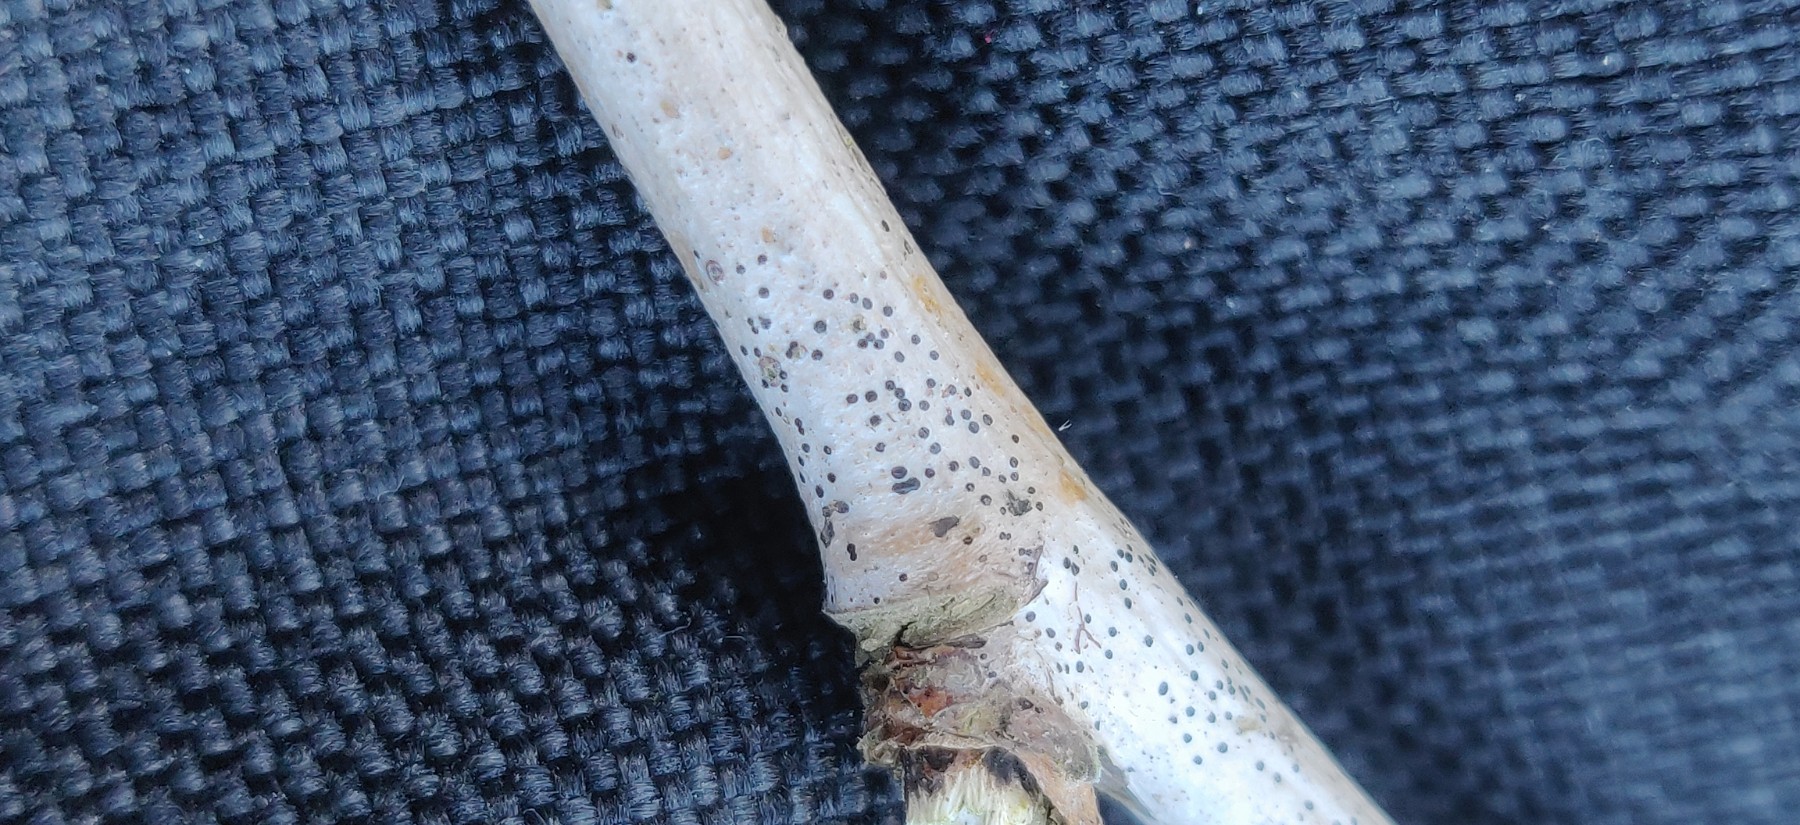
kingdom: Fungi
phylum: Ascomycota
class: Leotiomycetes
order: Rhytismatales
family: Rhytismataceae
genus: Hypoderma
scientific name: Hypoderma rubi
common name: brombær-fureplet
